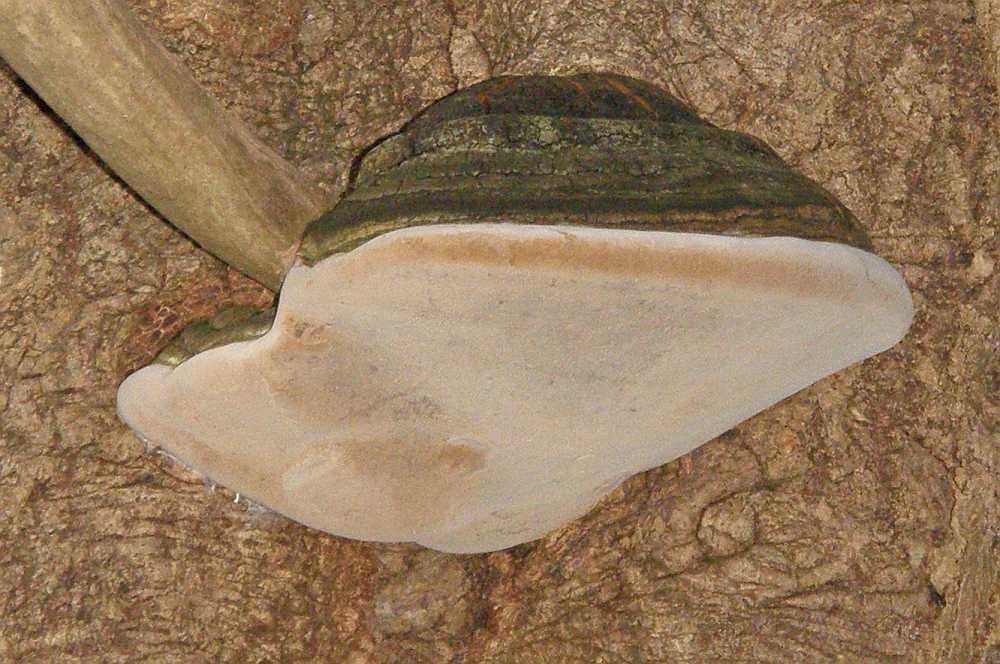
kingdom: Fungi
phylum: Basidiomycota
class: Agaricomycetes
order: Hymenochaetales
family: Hymenochaetaceae
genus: Phellinus
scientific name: Phellinus populicola
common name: poppel-ildporesvamp
